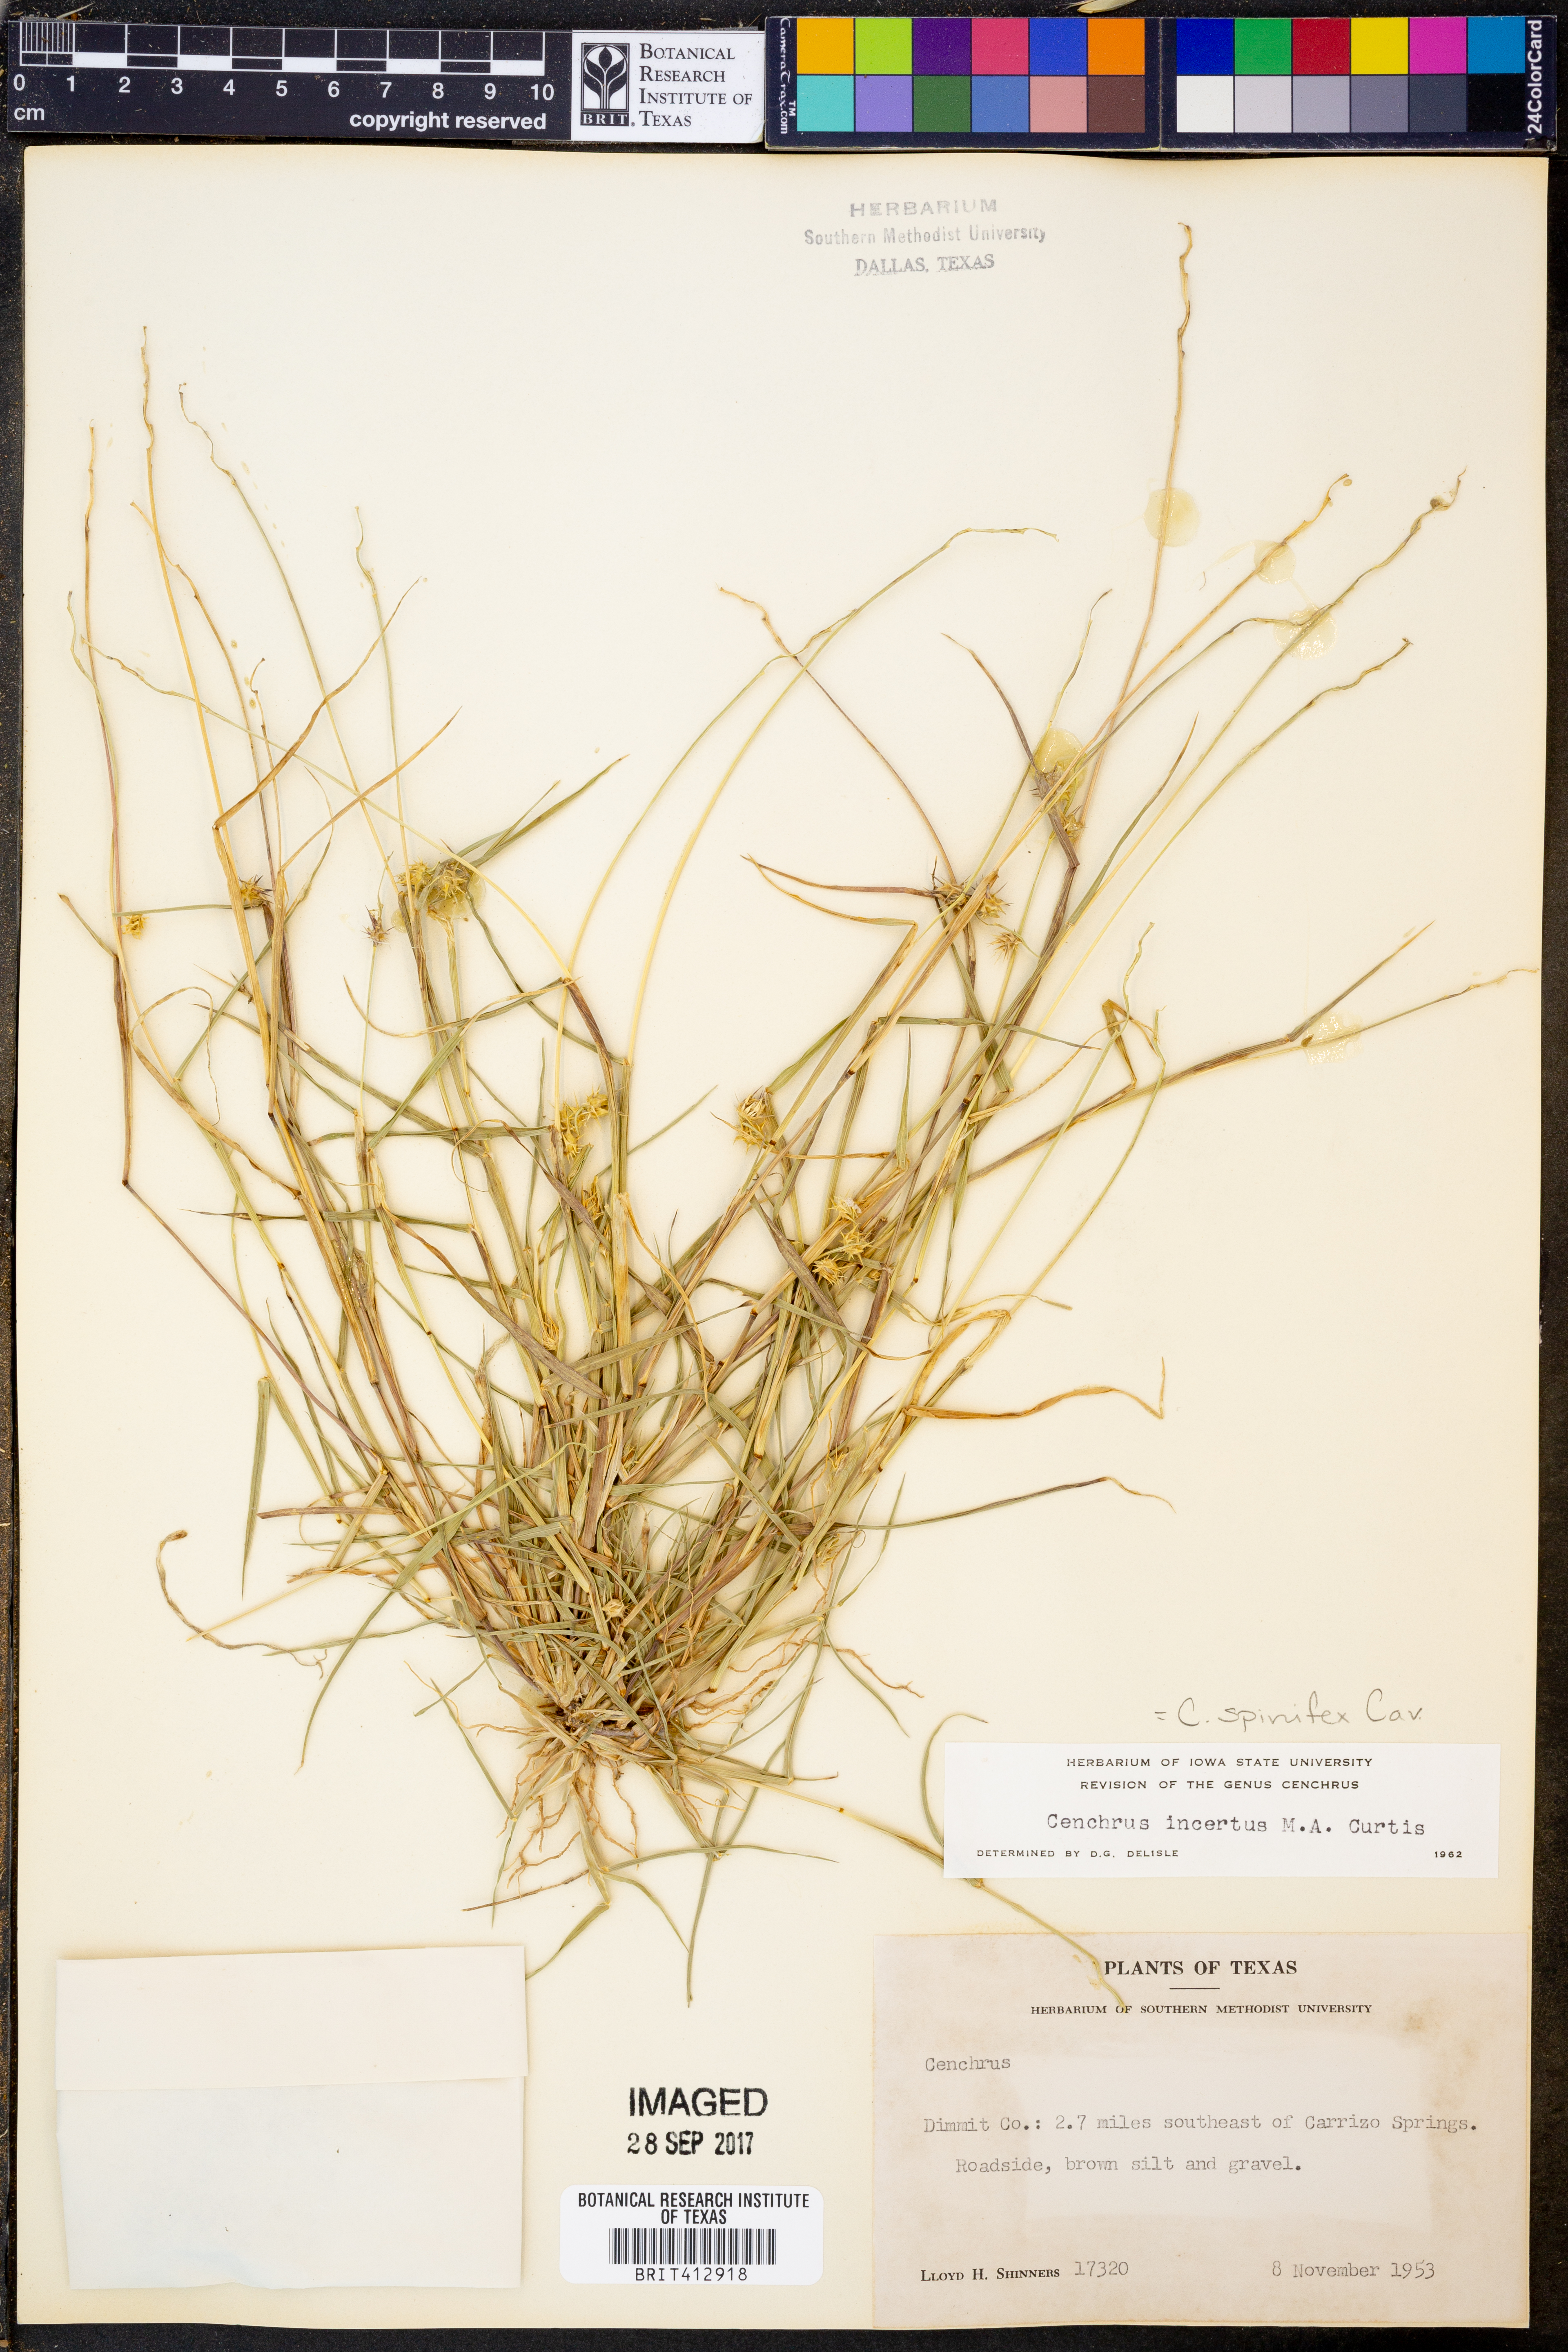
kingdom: Plantae
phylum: Tracheophyta
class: Liliopsida
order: Poales
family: Poaceae
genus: Cenchrus
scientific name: Cenchrus spinifex
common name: Coast sandbur
